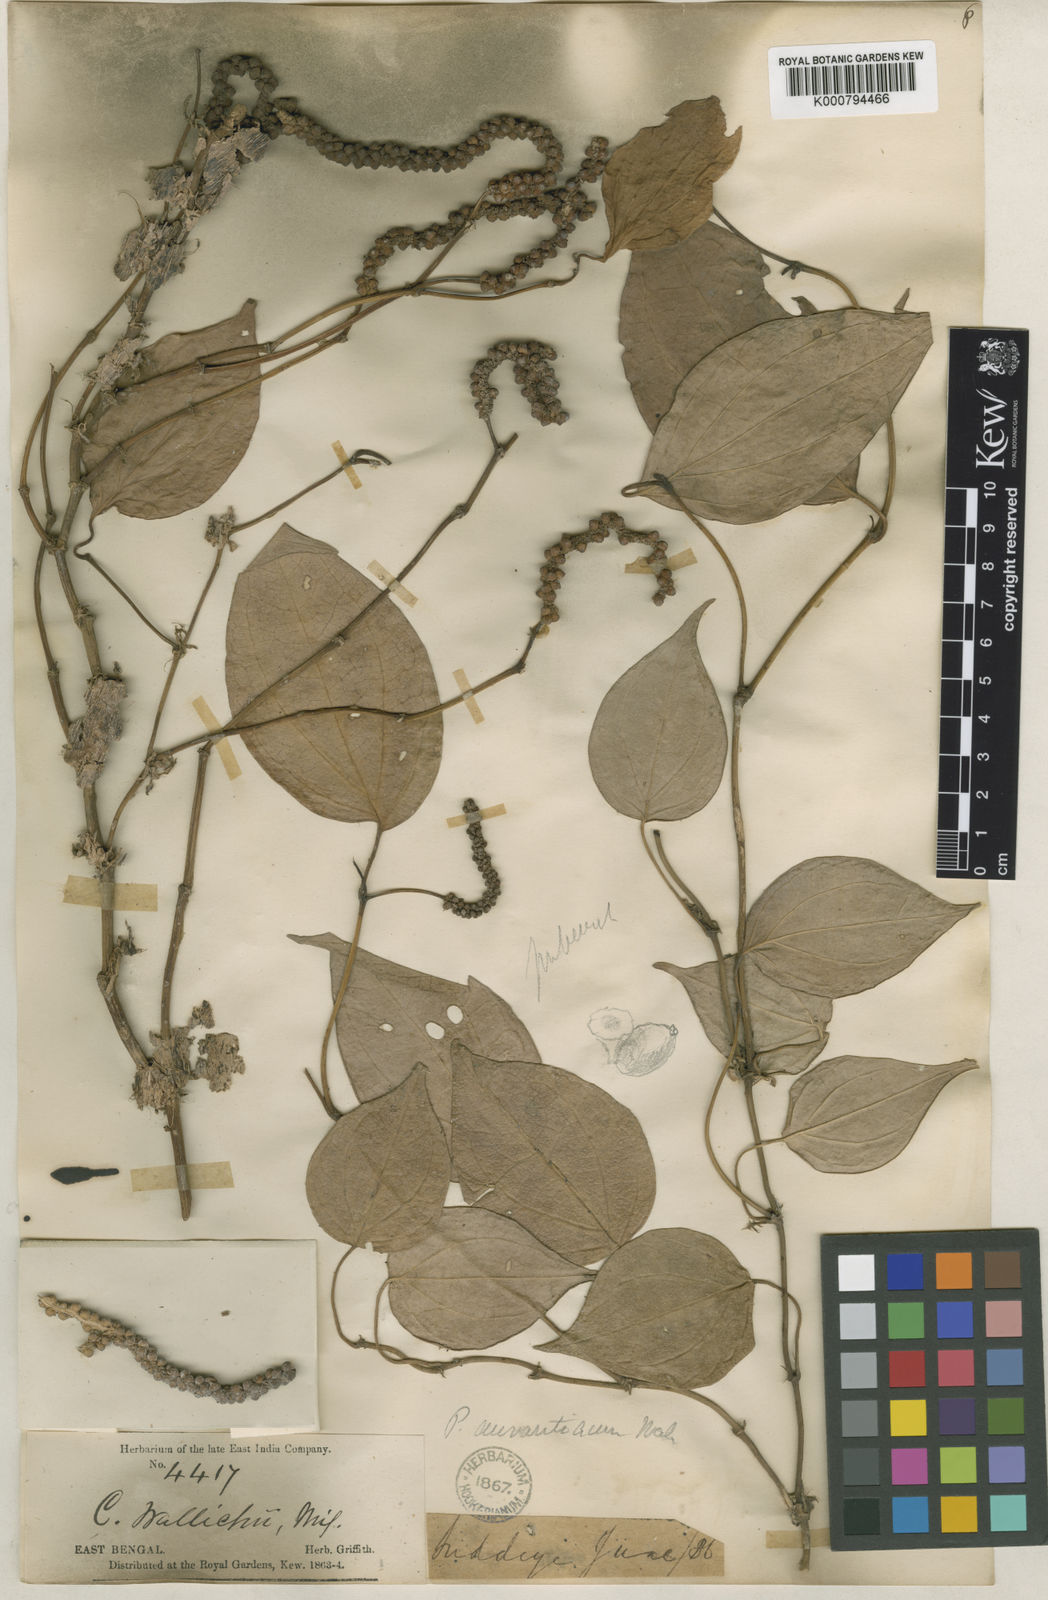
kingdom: Plantae
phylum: Tracheophyta
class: Magnoliopsida
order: Piperales
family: Piperaceae
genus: Piper
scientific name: Piper wallichii
